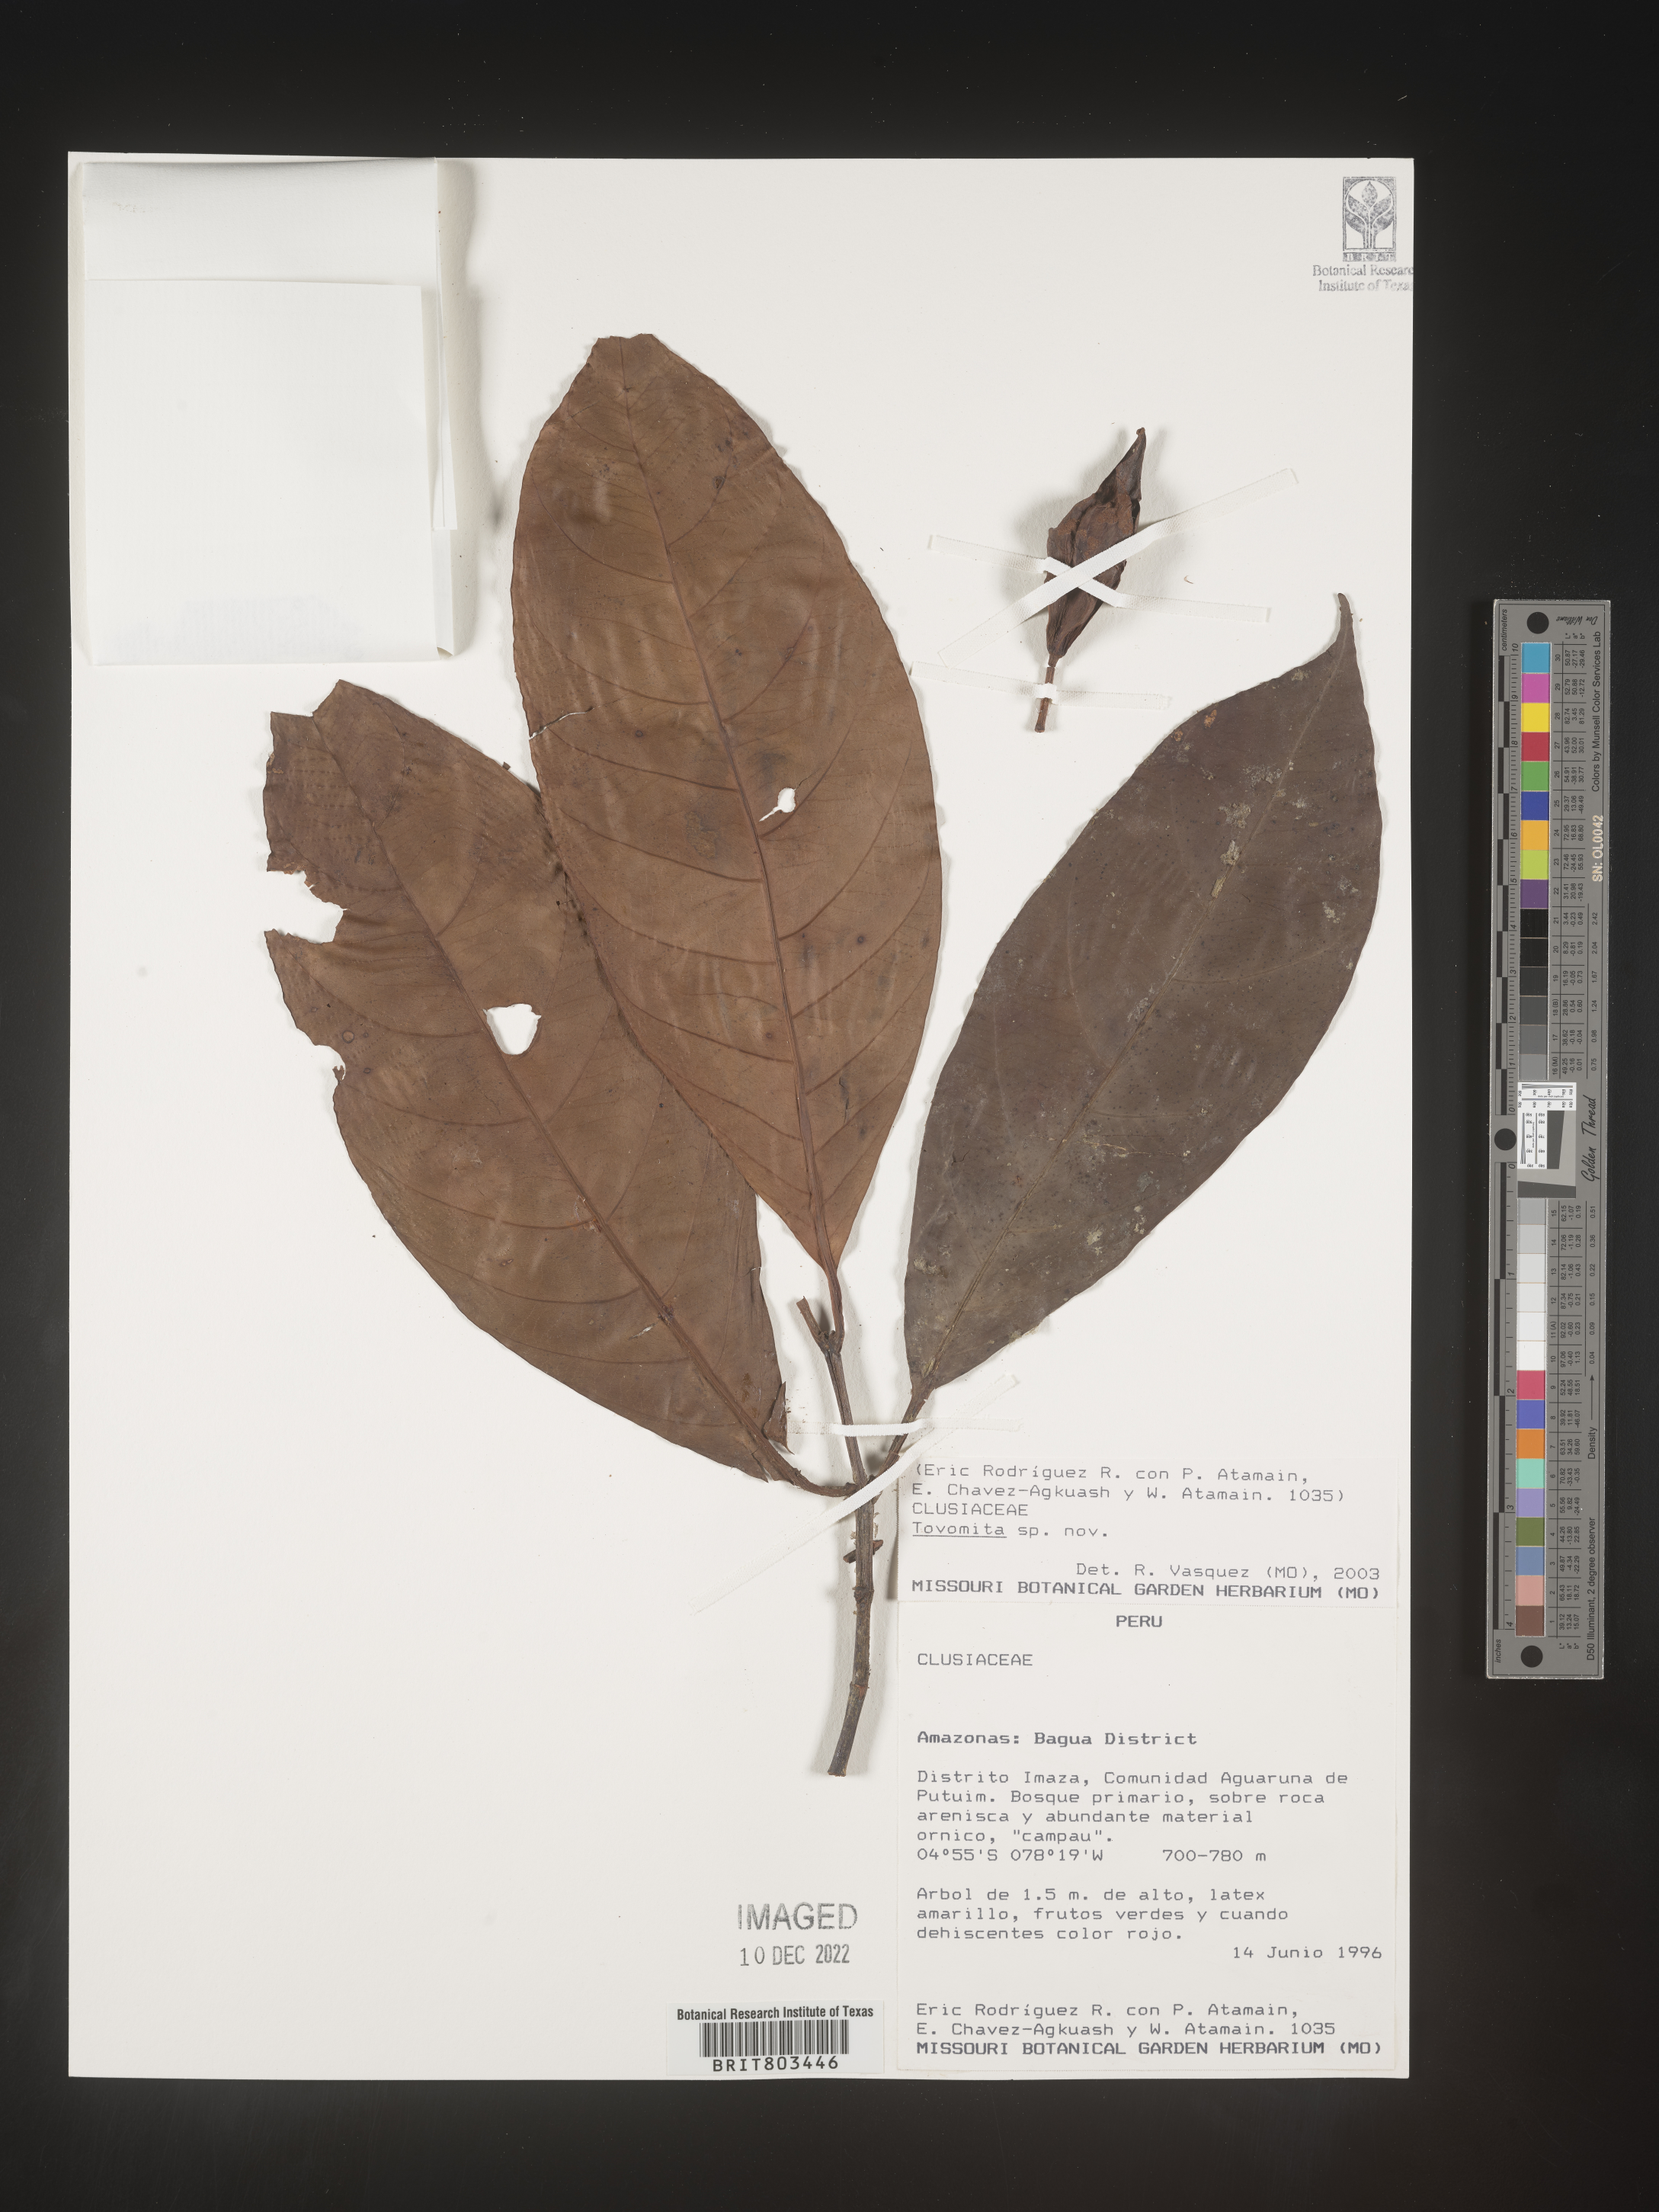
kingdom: Plantae
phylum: Tracheophyta
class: Magnoliopsida
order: Malpighiales
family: Clusiaceae
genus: Tovomita
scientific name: Tovomita
